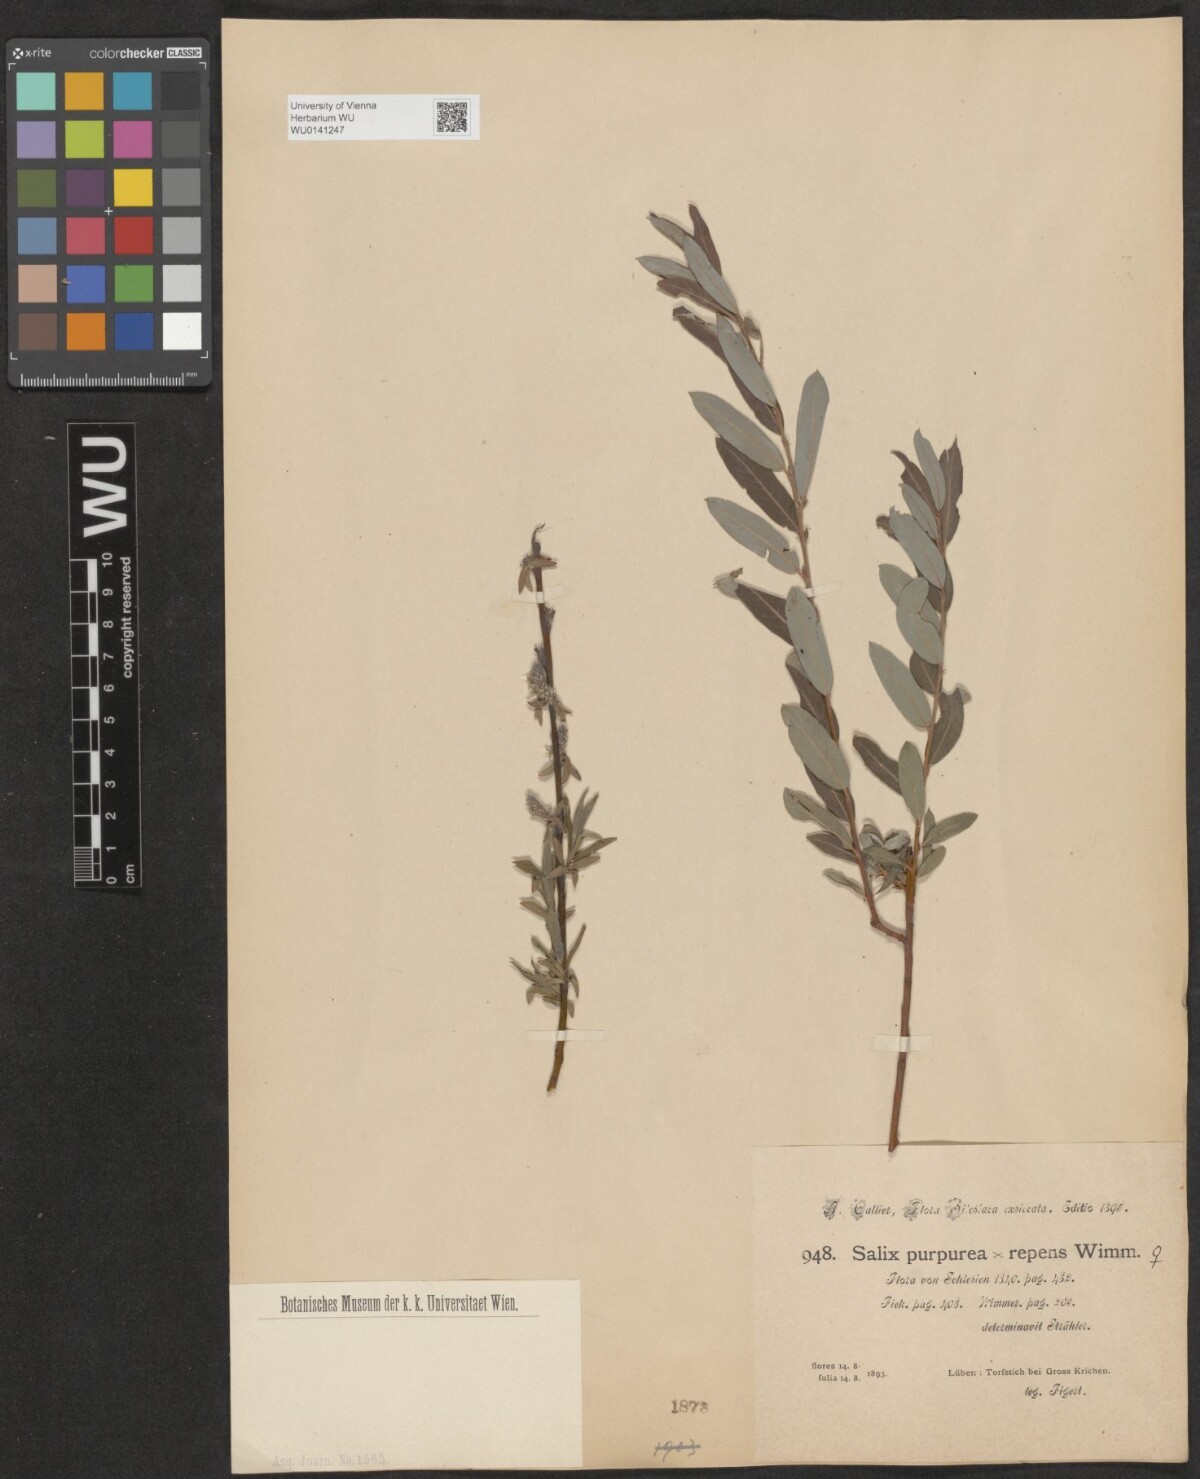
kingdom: Plantae
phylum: Tracheophyta
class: Magnoliopsida
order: Malpighiales
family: Salicaceae
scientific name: Salicaceae
